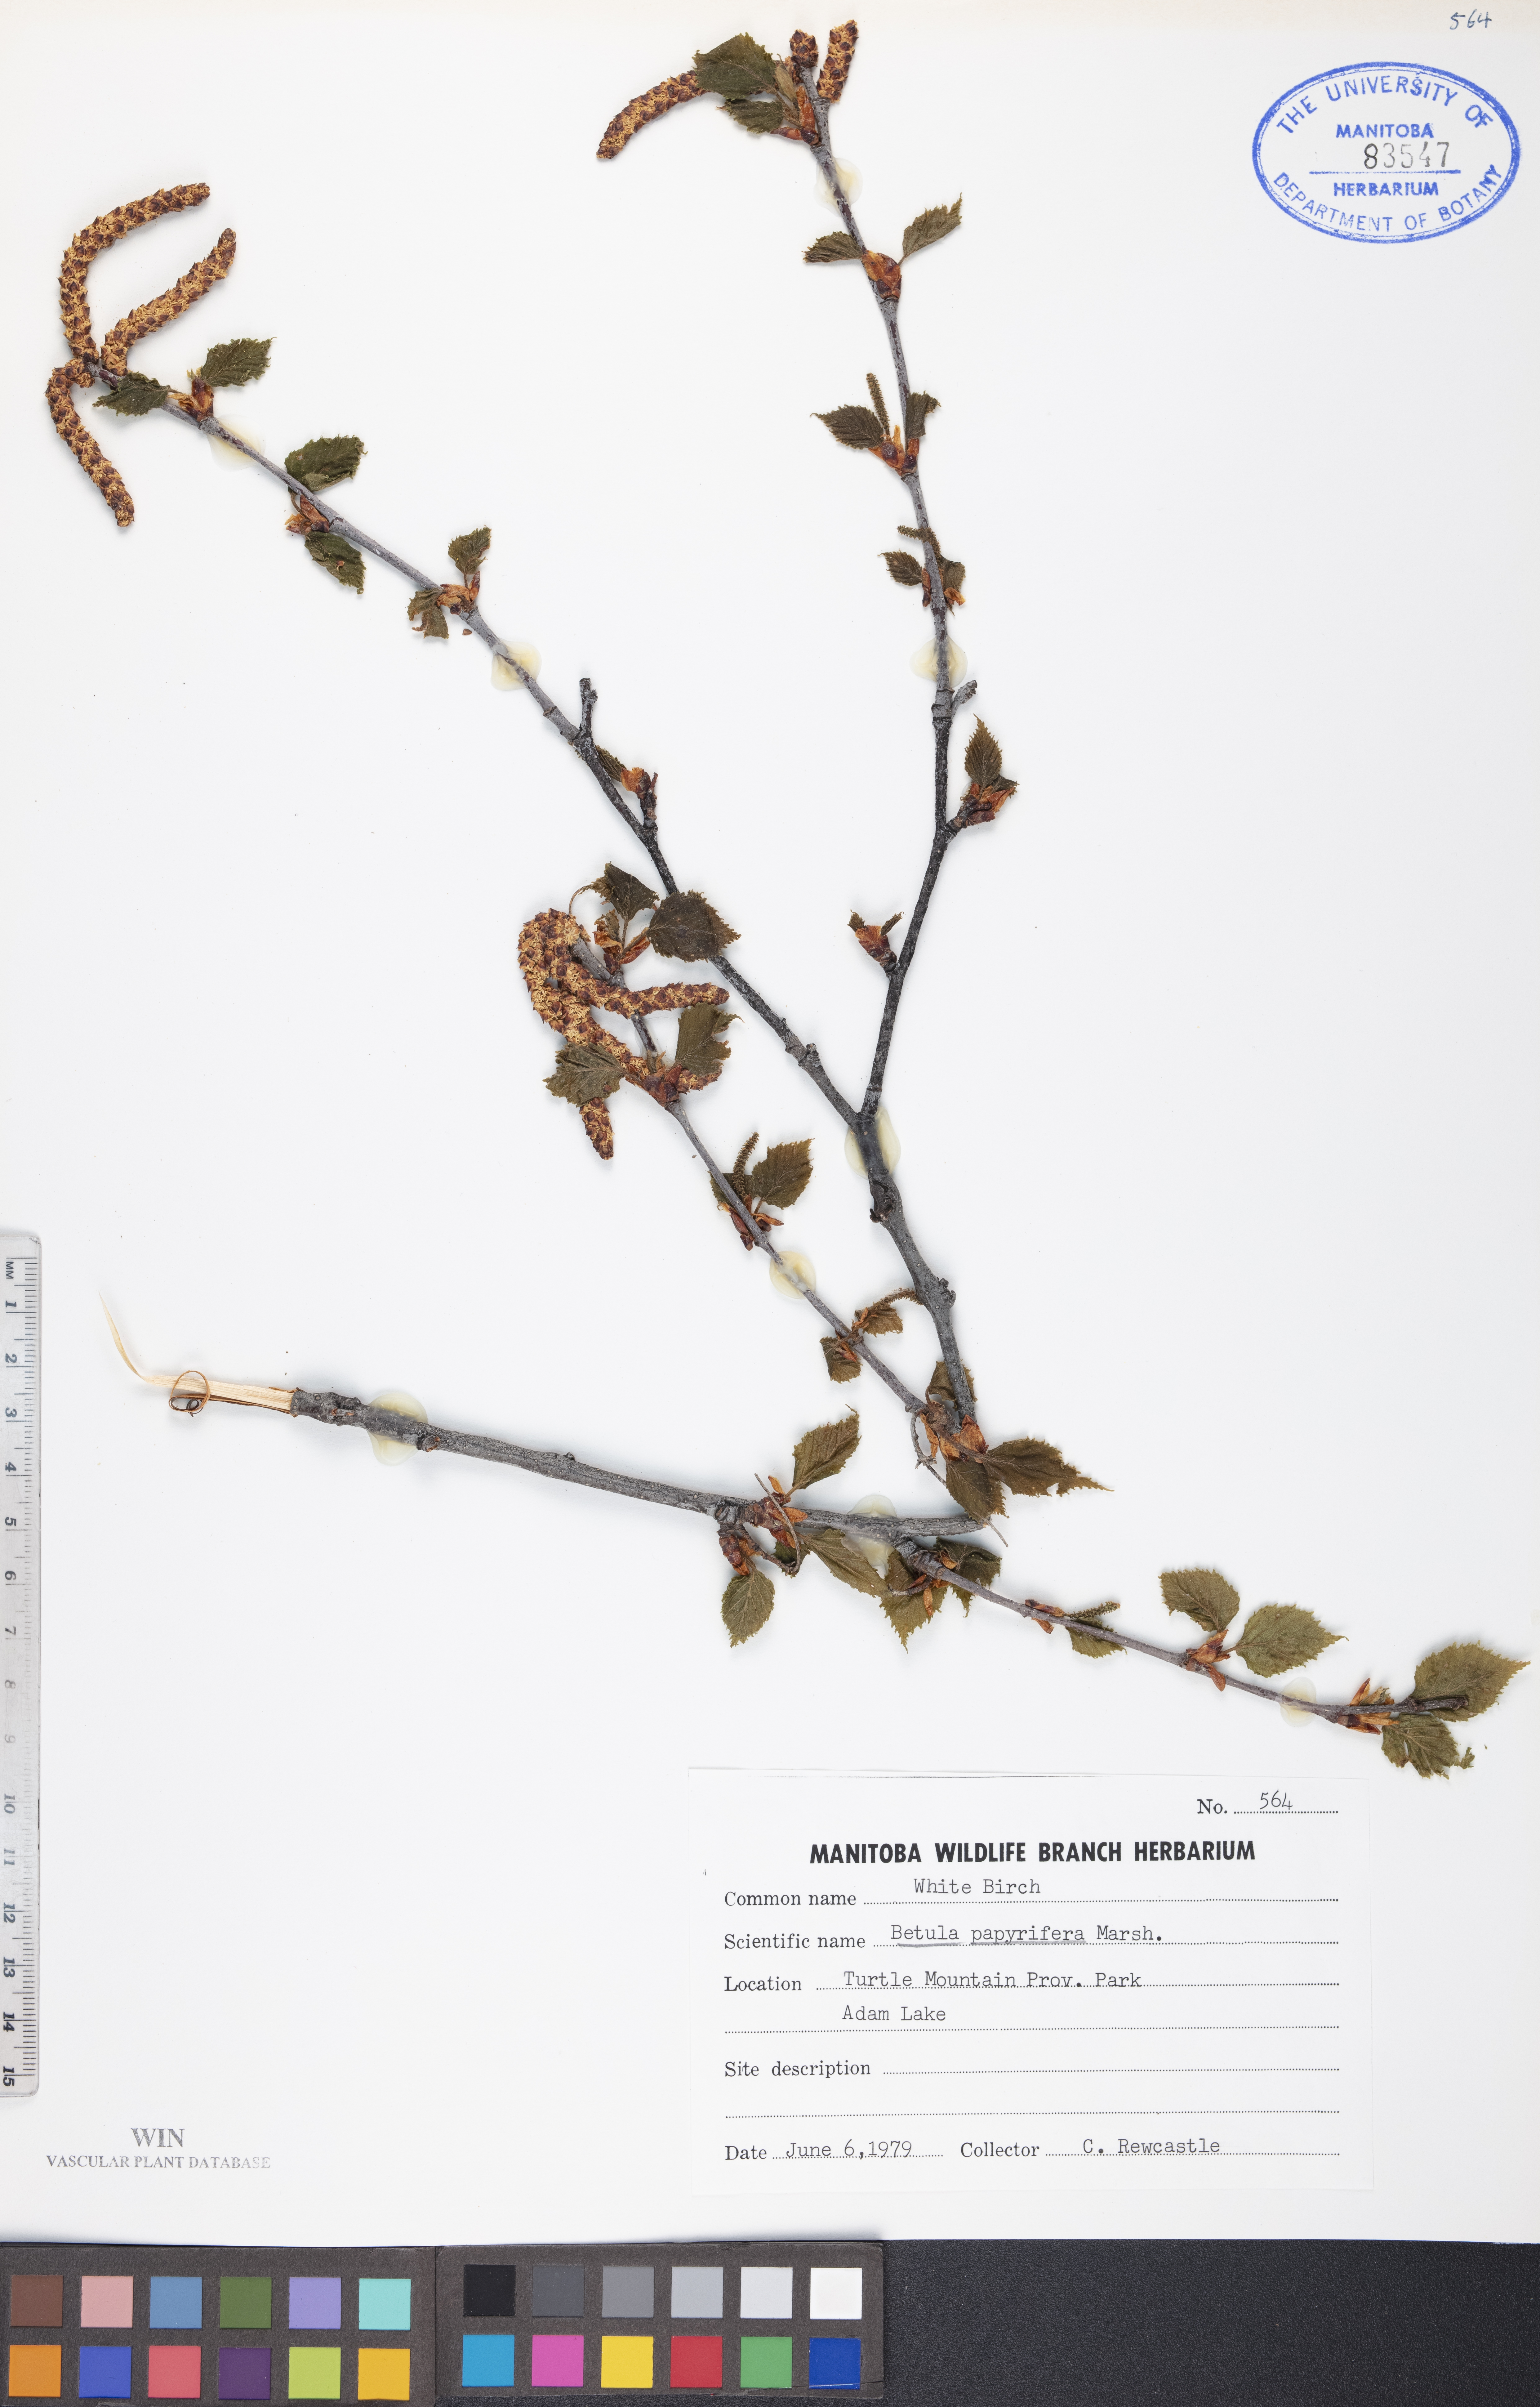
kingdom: Plantae
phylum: Tracheophyta
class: Magnoliopsida
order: Fagales
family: Betulaceae
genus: Betula
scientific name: Betula papyrifera
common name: Paper birch
